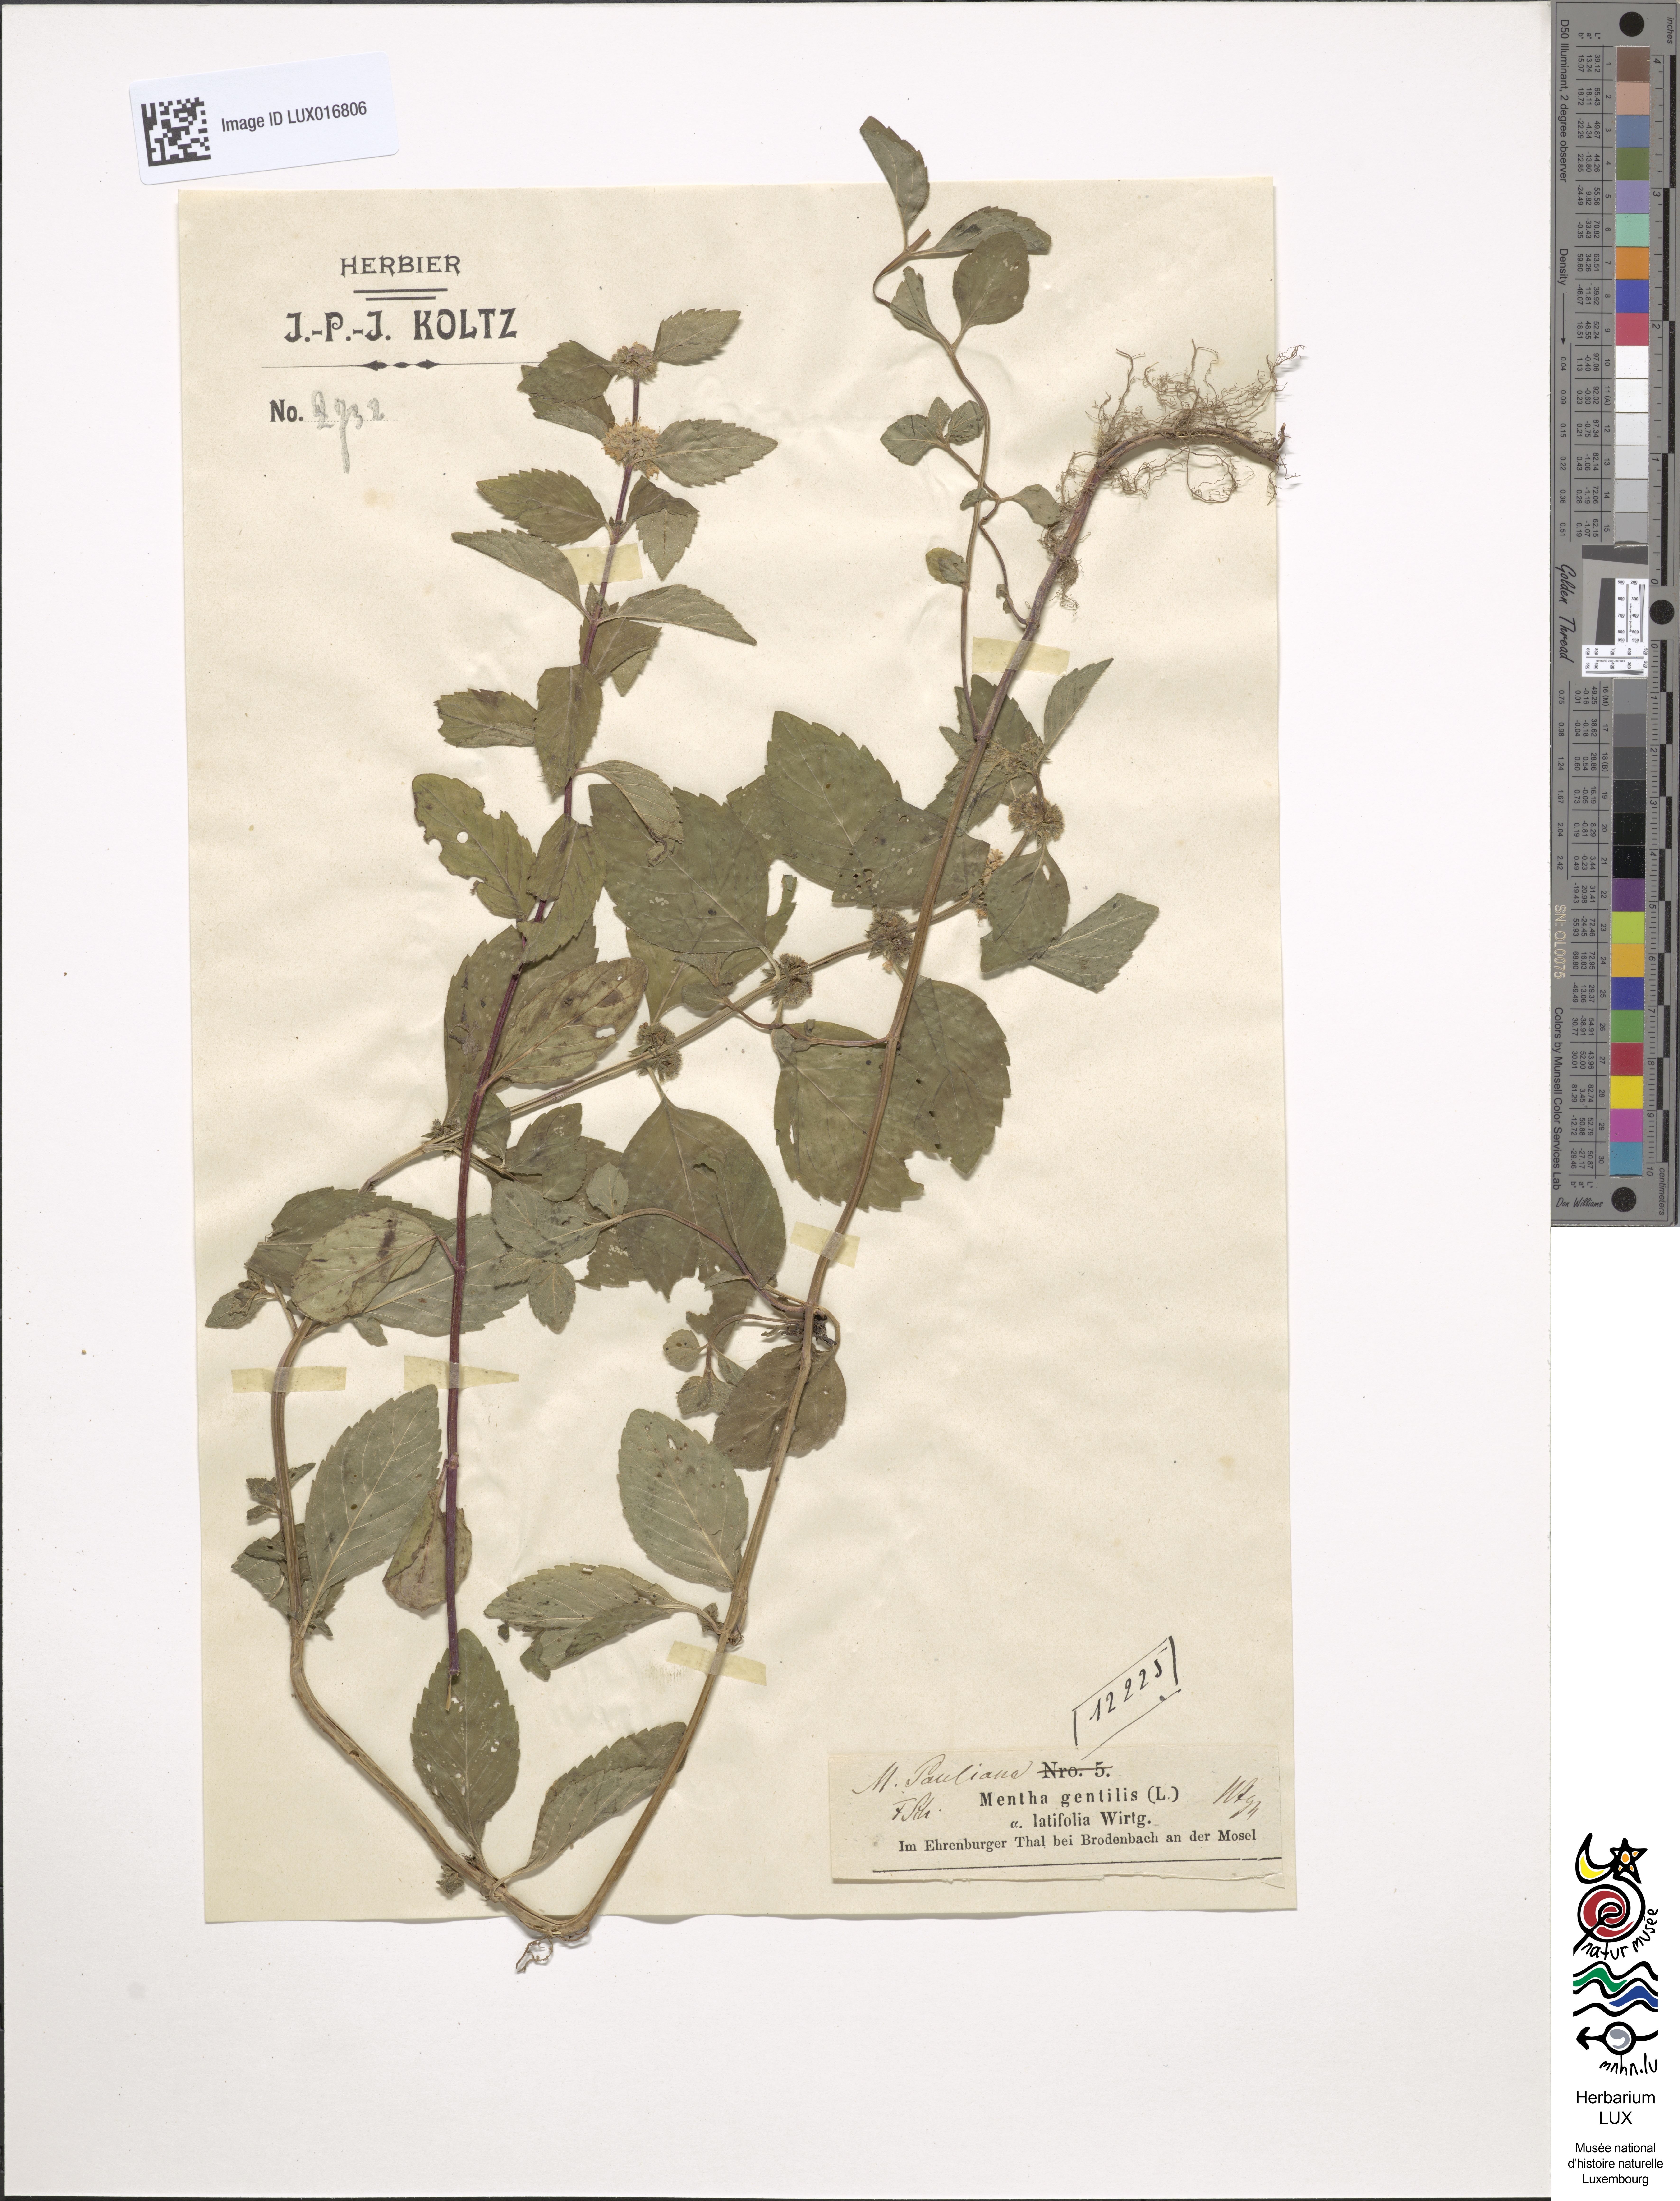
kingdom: Plantae
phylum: Tracheophyta
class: Magnoliopsida
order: Lamiales
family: Lamiaceae
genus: Mentha
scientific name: Mentha gentilis
